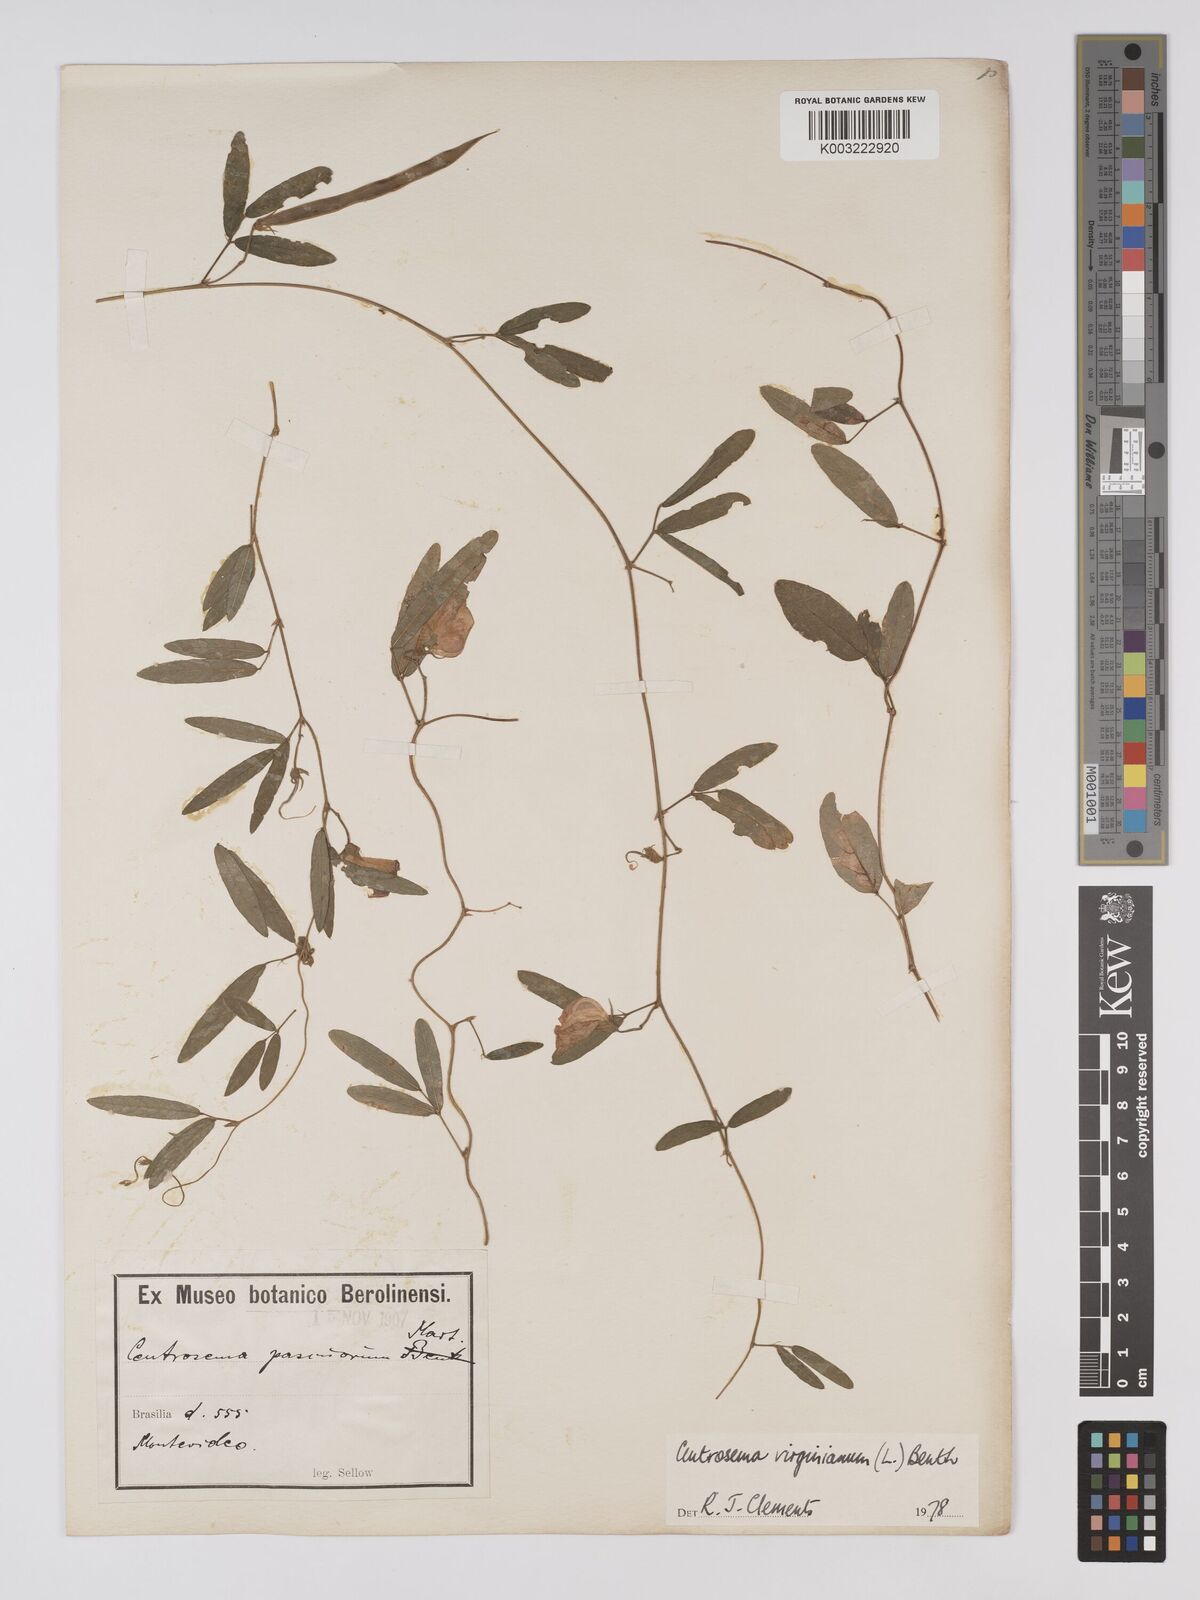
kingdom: Plantae
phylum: Tracheophyta
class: Magnoliopsida
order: Fabales
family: Fabaceae
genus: Centrosema
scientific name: Centrosema virginianum
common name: Butterfly-pea
